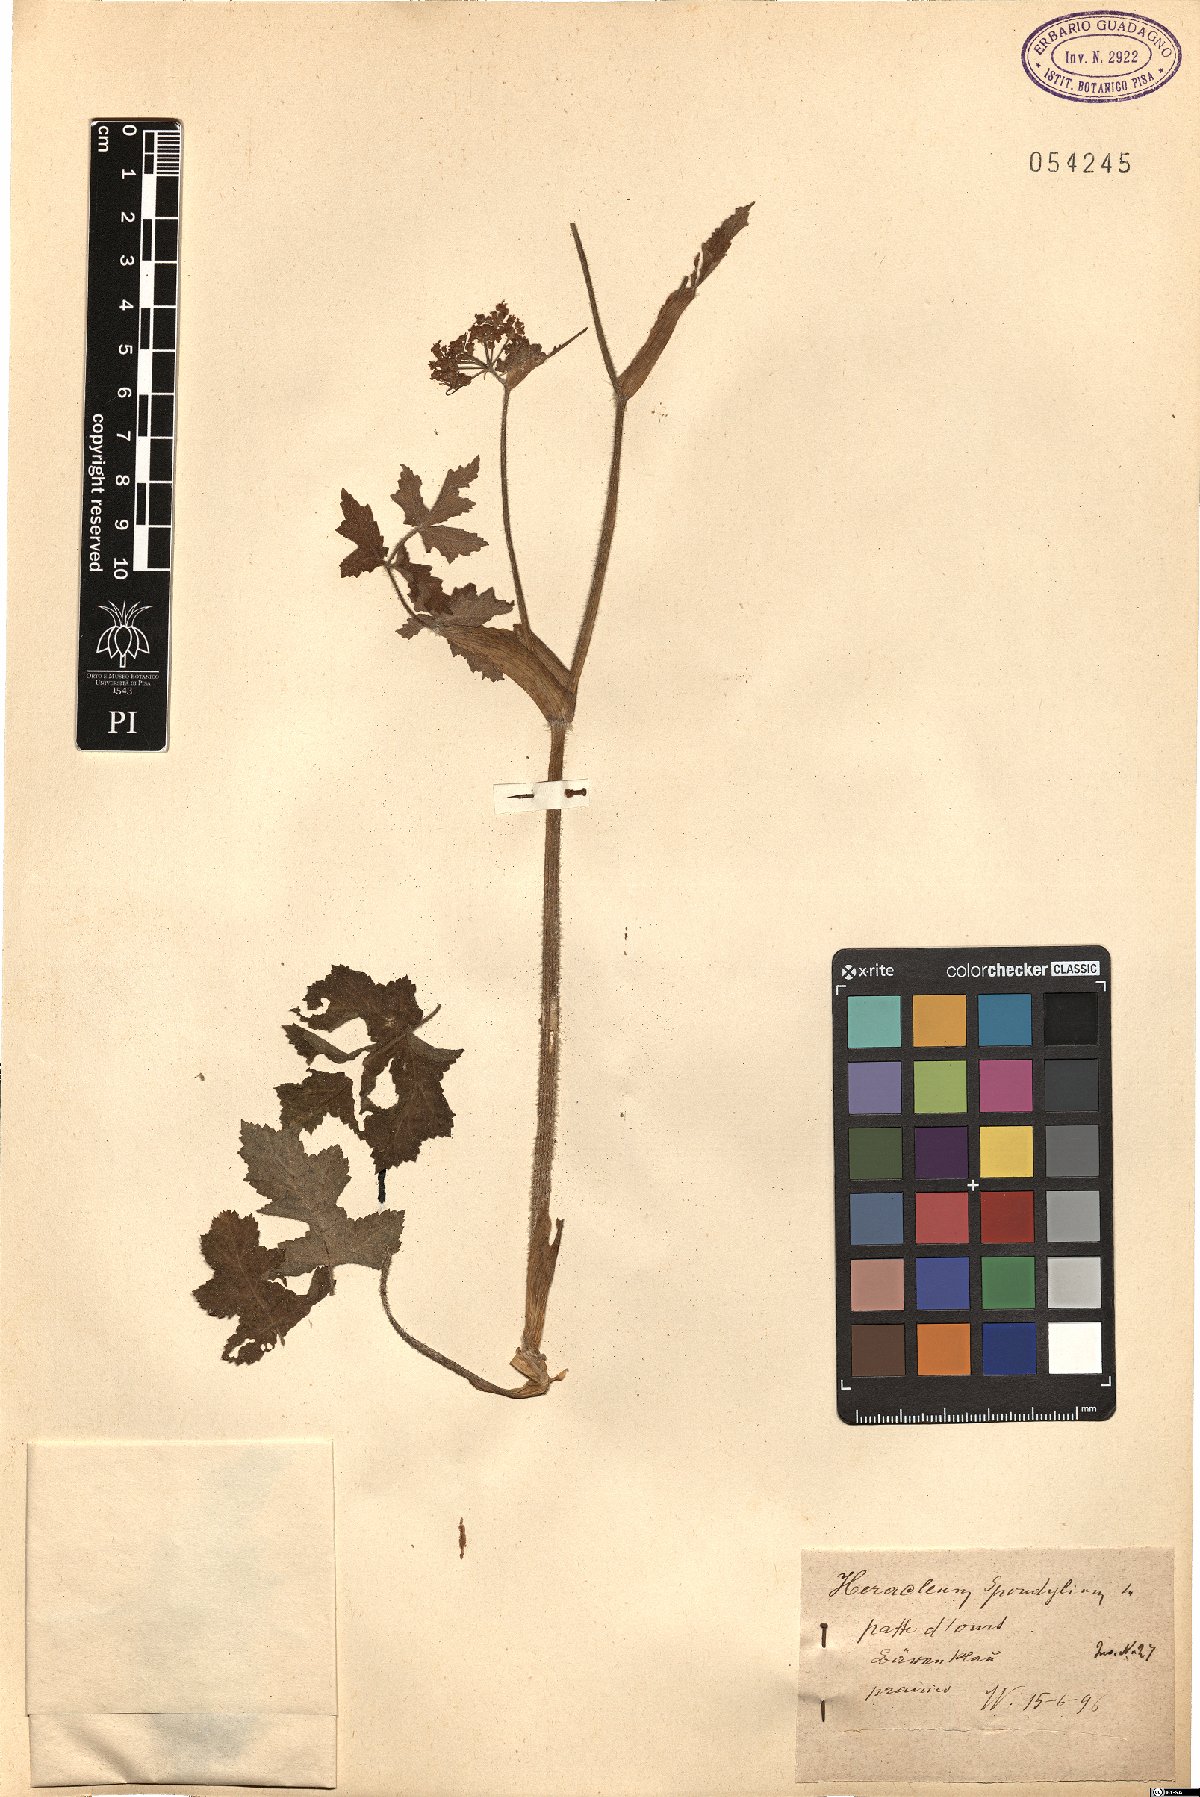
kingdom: Plantae
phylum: Tracheophyta
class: Magnoliopsida
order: Apiales
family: Apiaceae
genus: Heracleum
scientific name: Heracleum sphondylium
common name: Hogweed
